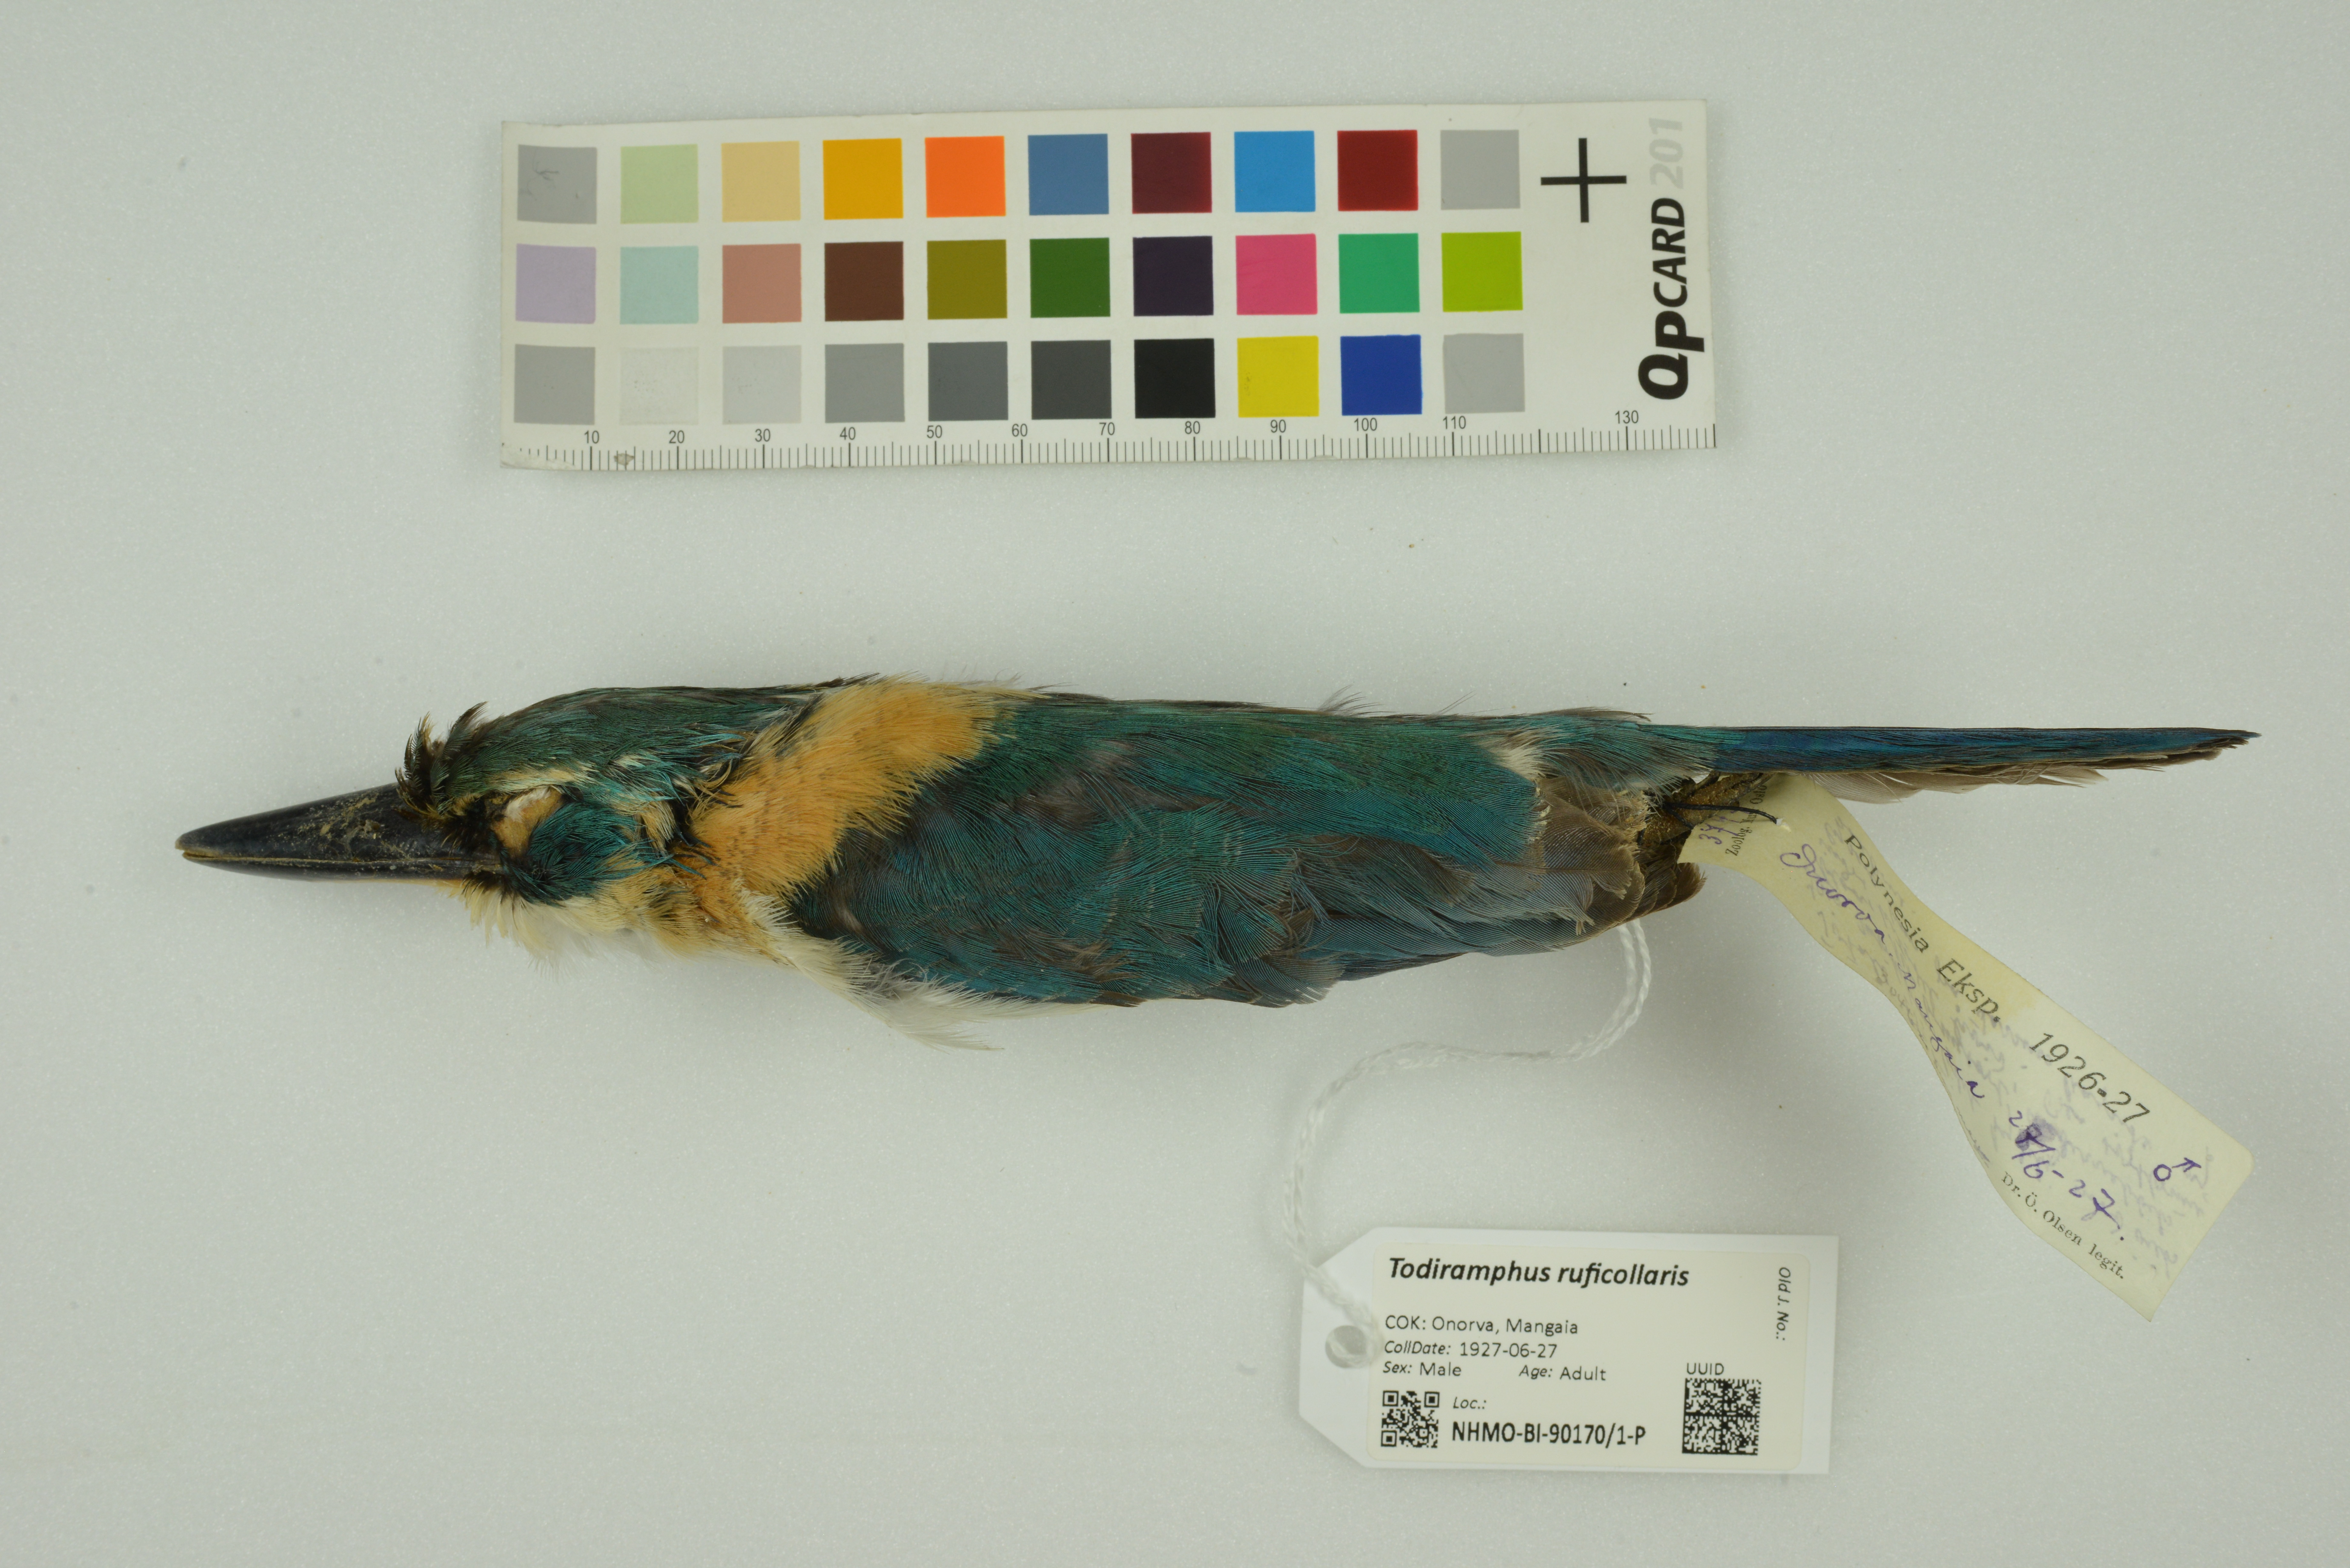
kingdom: Animalia
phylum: Chordata
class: Aves
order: Coraciiformes
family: Alcedinidae
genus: Todiramphus
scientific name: Todiramphus ruficollaris
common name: Mewing kingfisher
